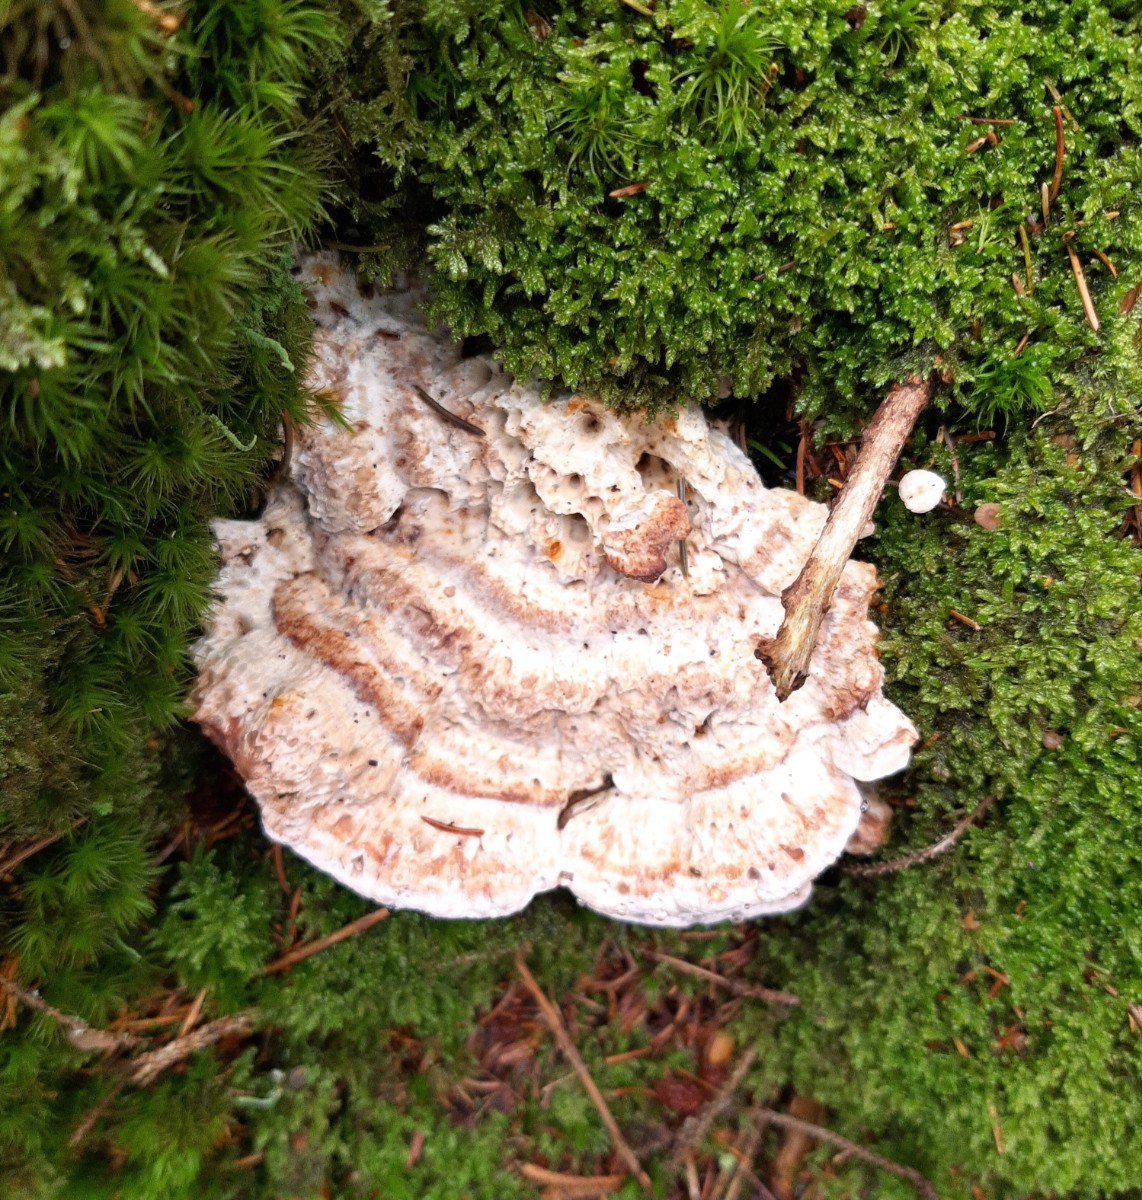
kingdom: Fungi
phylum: Basidiomycota
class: Agaricomycetes
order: Polyporales
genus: Calcipostia
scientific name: Calcipostia guttulata
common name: dråbe-kødporesvamp
